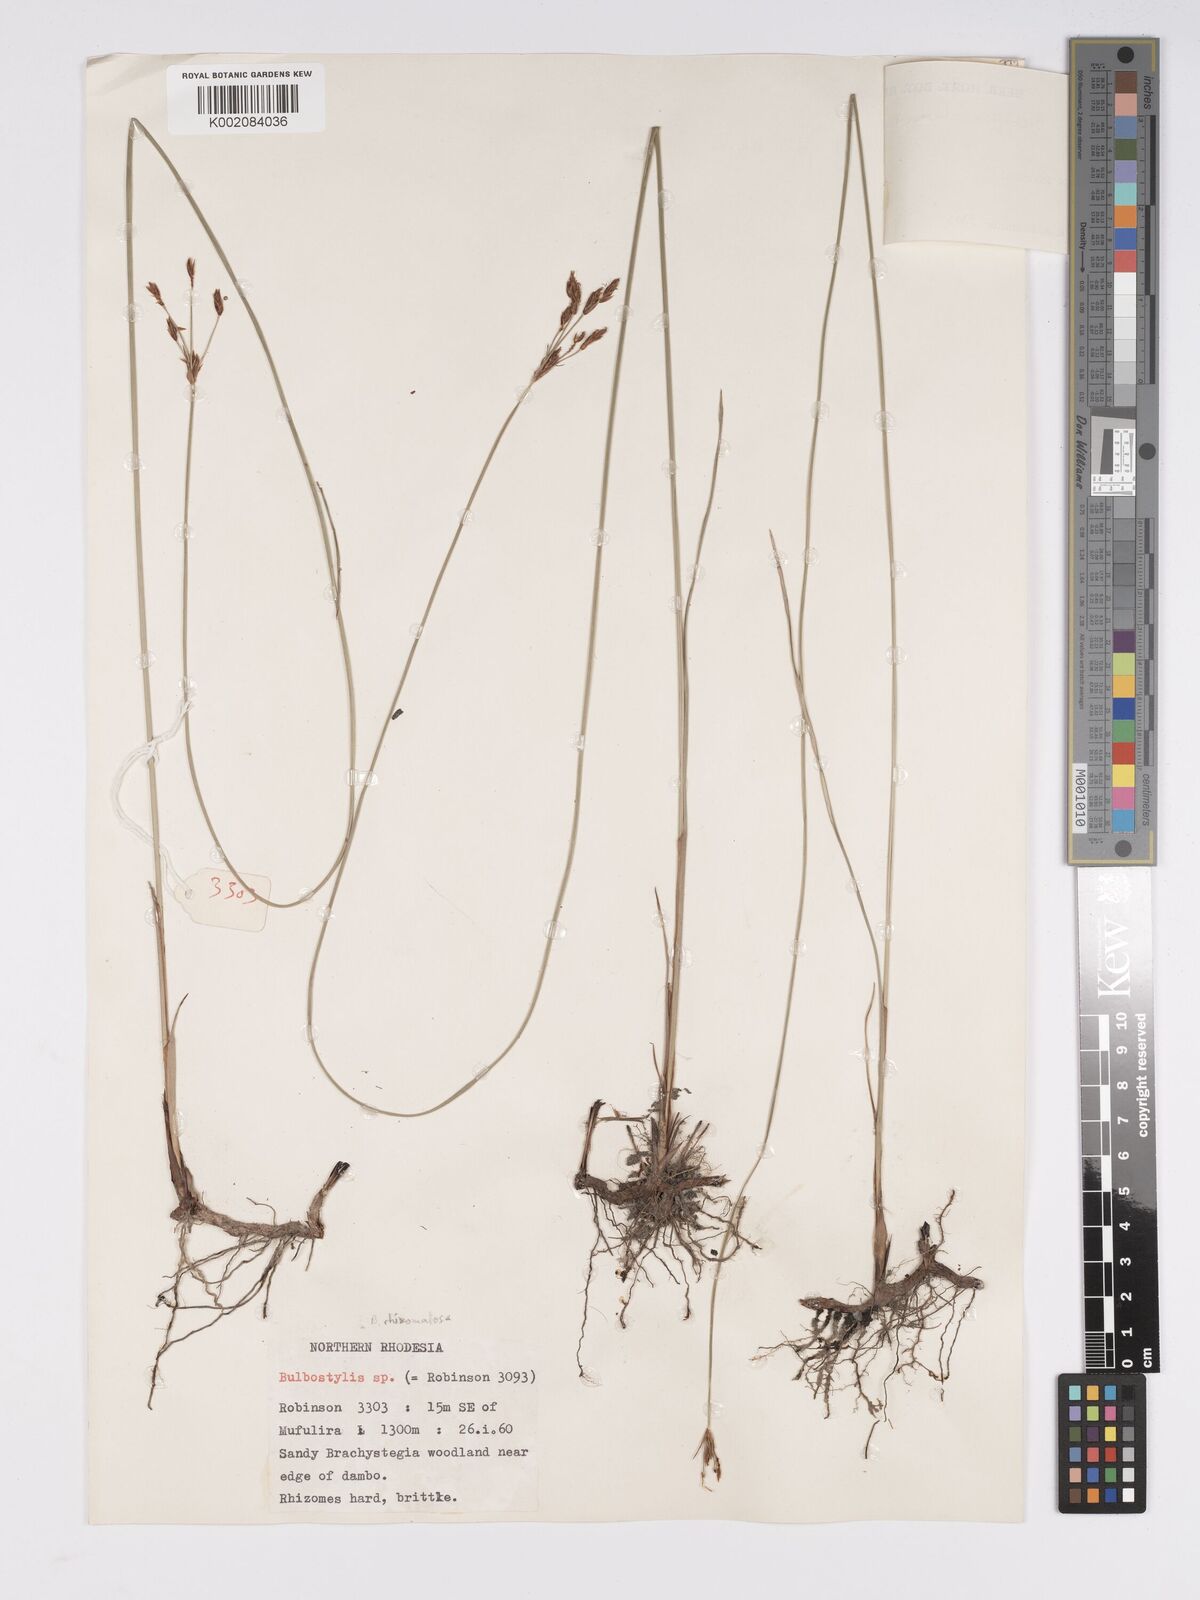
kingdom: Plantae
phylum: Tracheophyta
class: Liliopsida
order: Poales
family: Cyperaceae
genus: Bulbostylis
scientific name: Bulbostylis rhizomatosa
